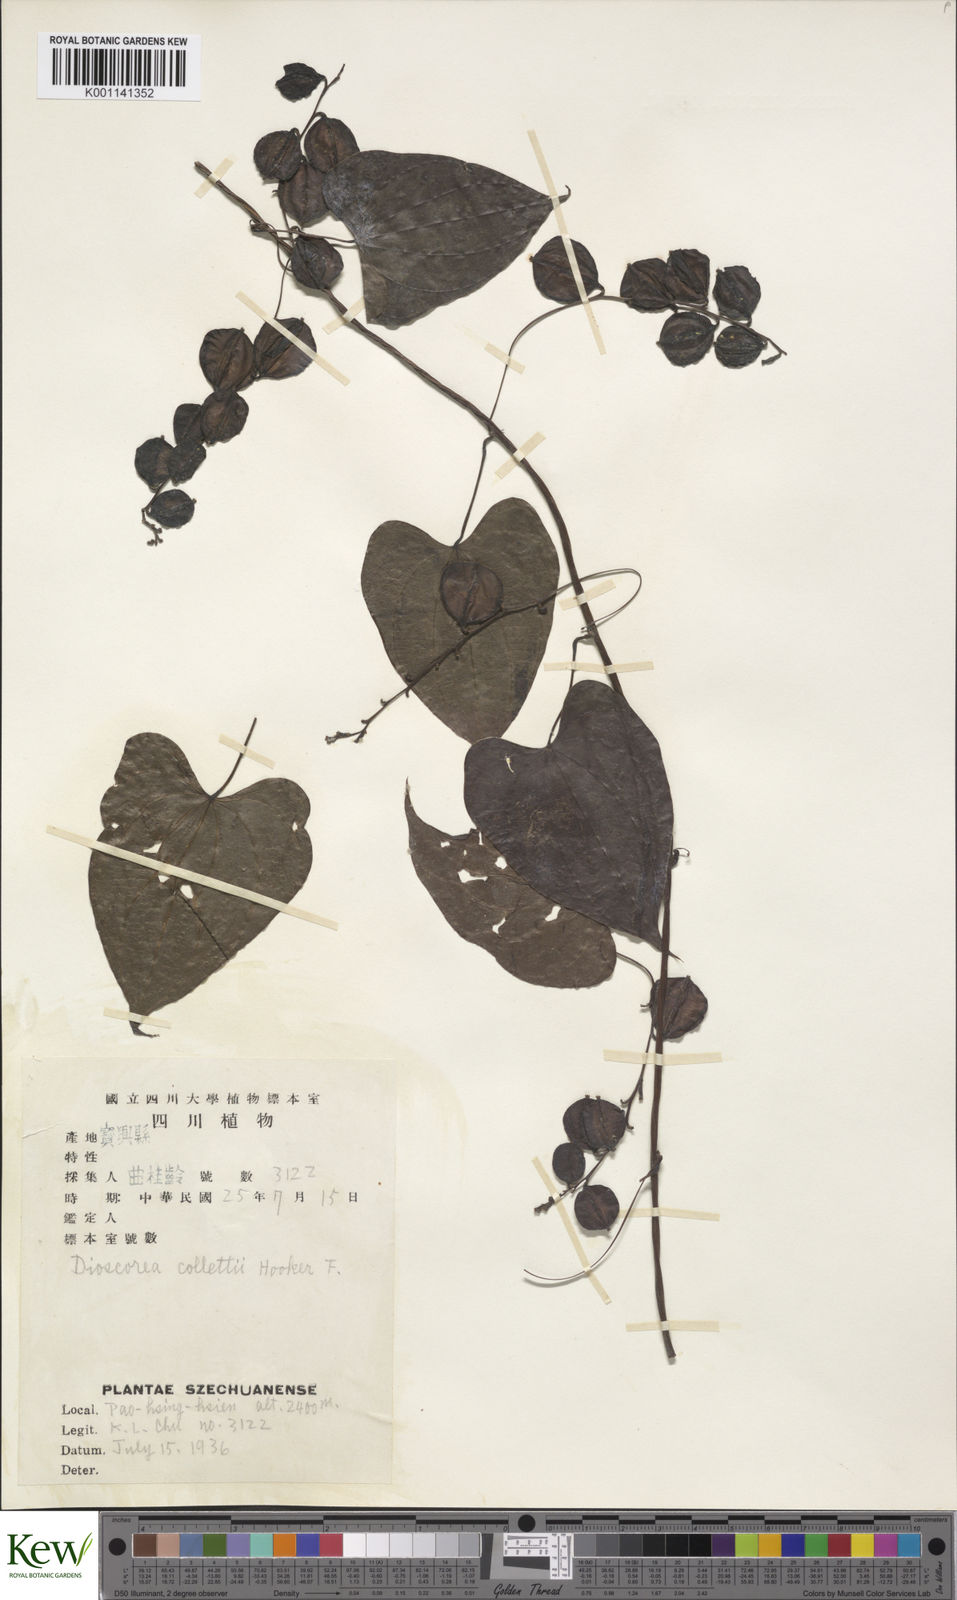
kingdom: Plantae
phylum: Tracheophyta
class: Liliopsida
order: Dioscoreales
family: Dioscoreaceae
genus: Dioscorea
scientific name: Dioscorea collettii
